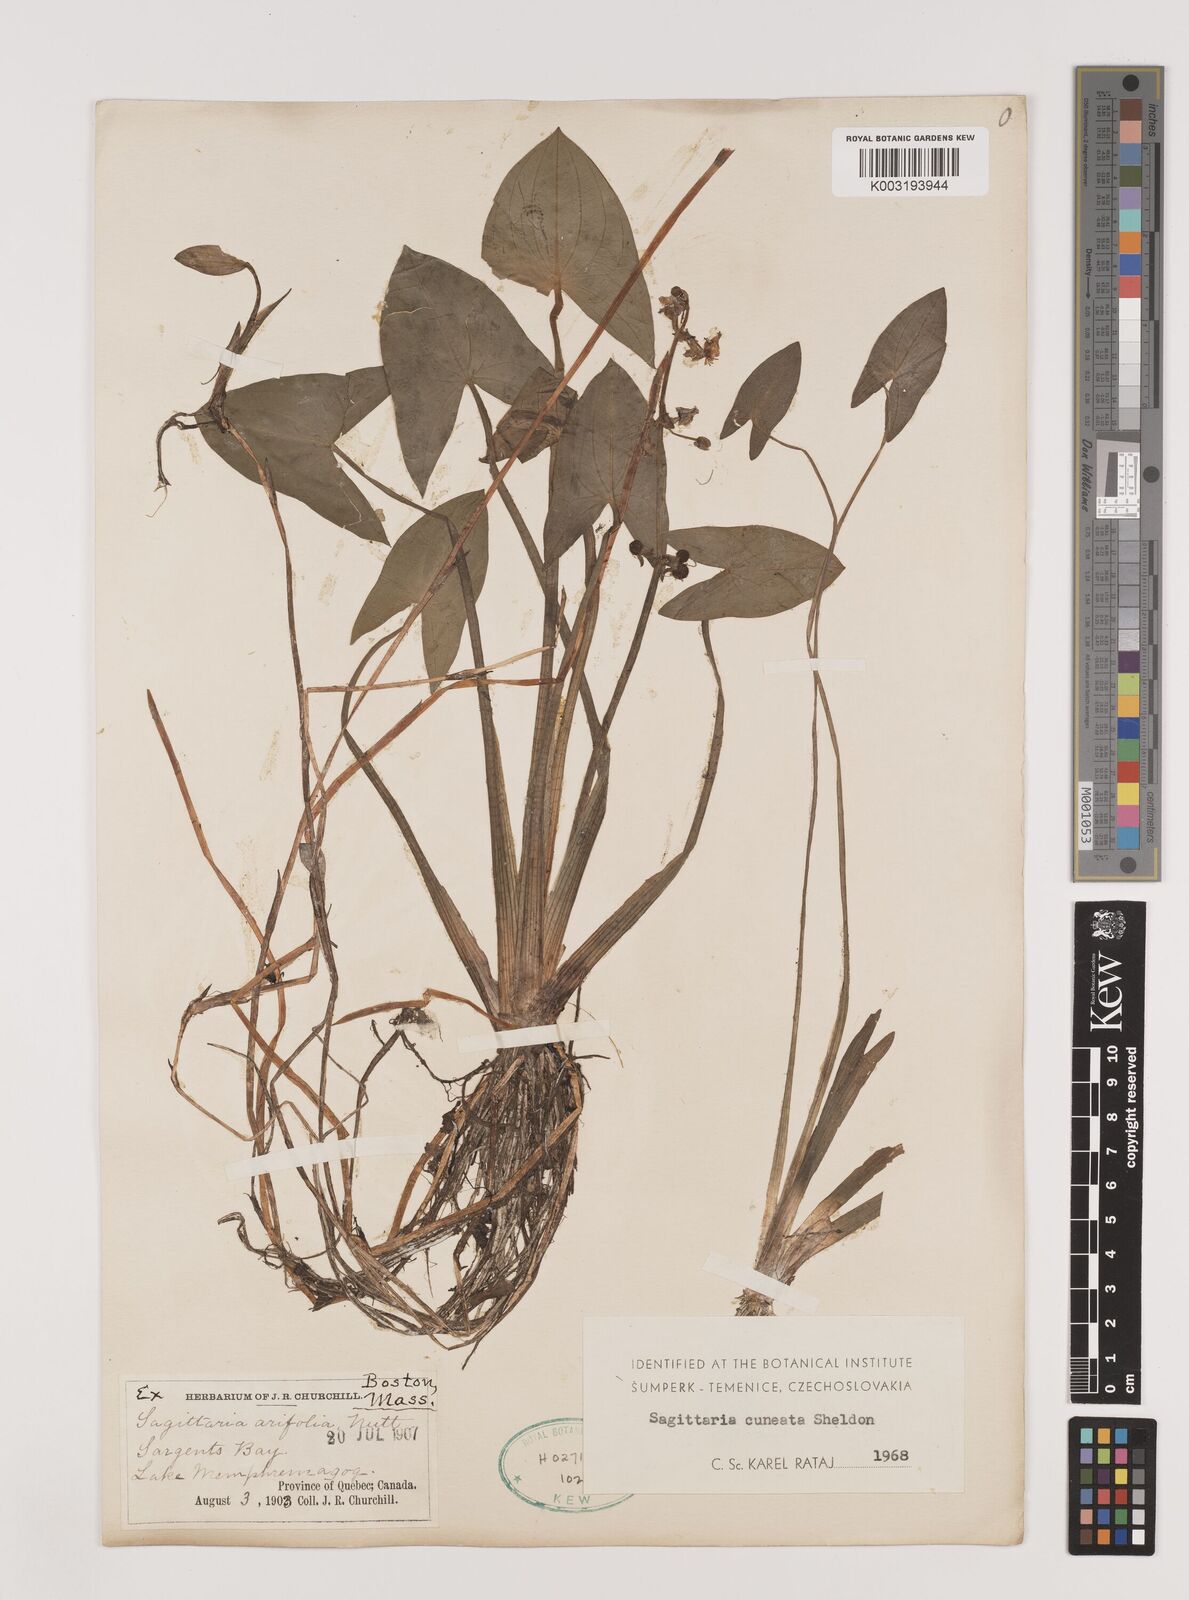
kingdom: Plantae
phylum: Tracheophyta
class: Liliopsida
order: Alismatales
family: Alismataceae
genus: Sagittaria
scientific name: Sagittaria cuneata
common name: Northern arrowhead
